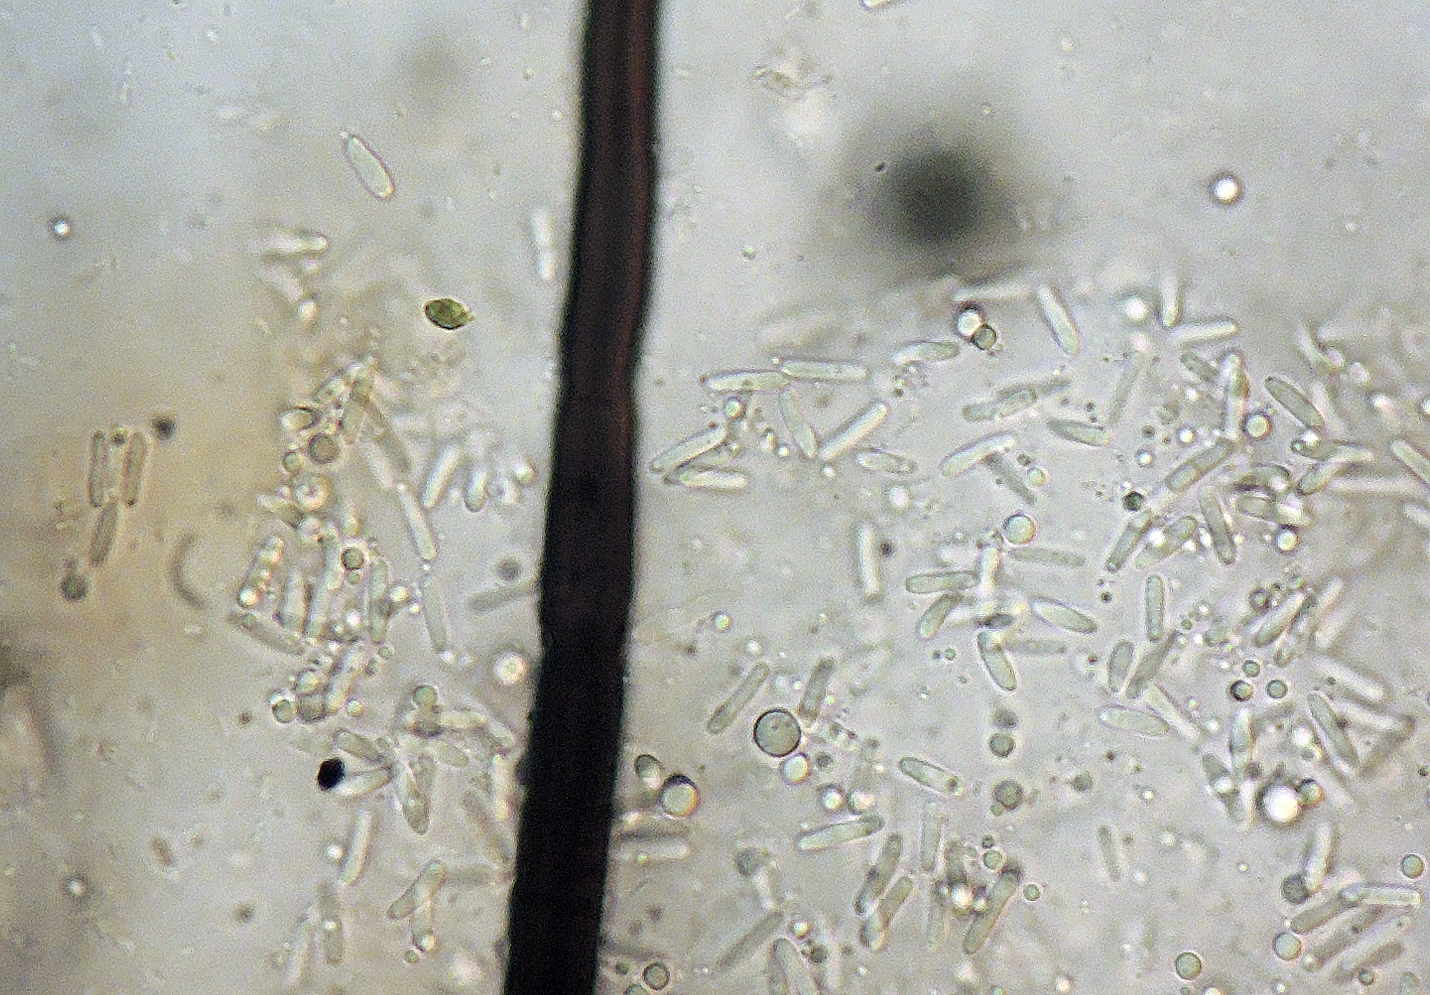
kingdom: Fungi
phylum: Ascomycota
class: Dothideomycetes
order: Pleosporales
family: Cucurbitariaceae
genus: Pyrenochaeta
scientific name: Pyrenochaeta nobilis
